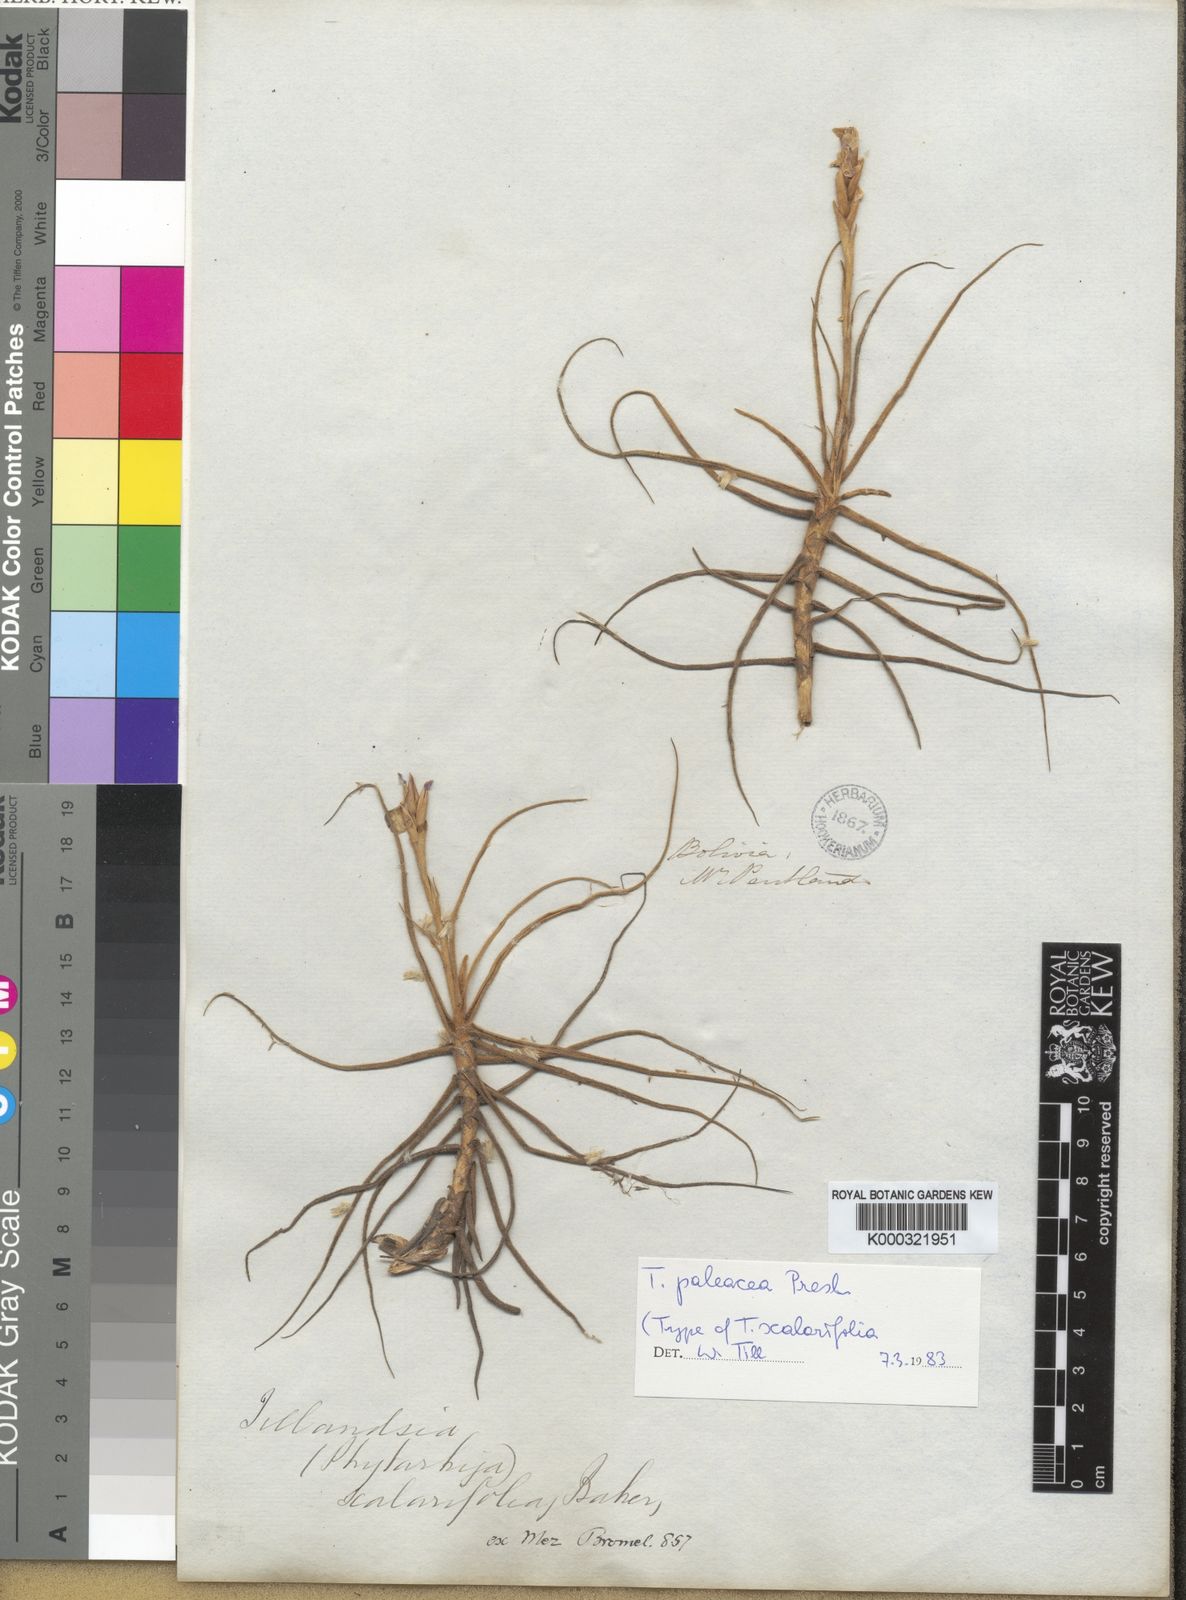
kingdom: Plantae
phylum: Tracheophyta
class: Liliopsida
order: Poales
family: Bromeliaceae
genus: Tillandsia
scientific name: Tillandsia paleacea
